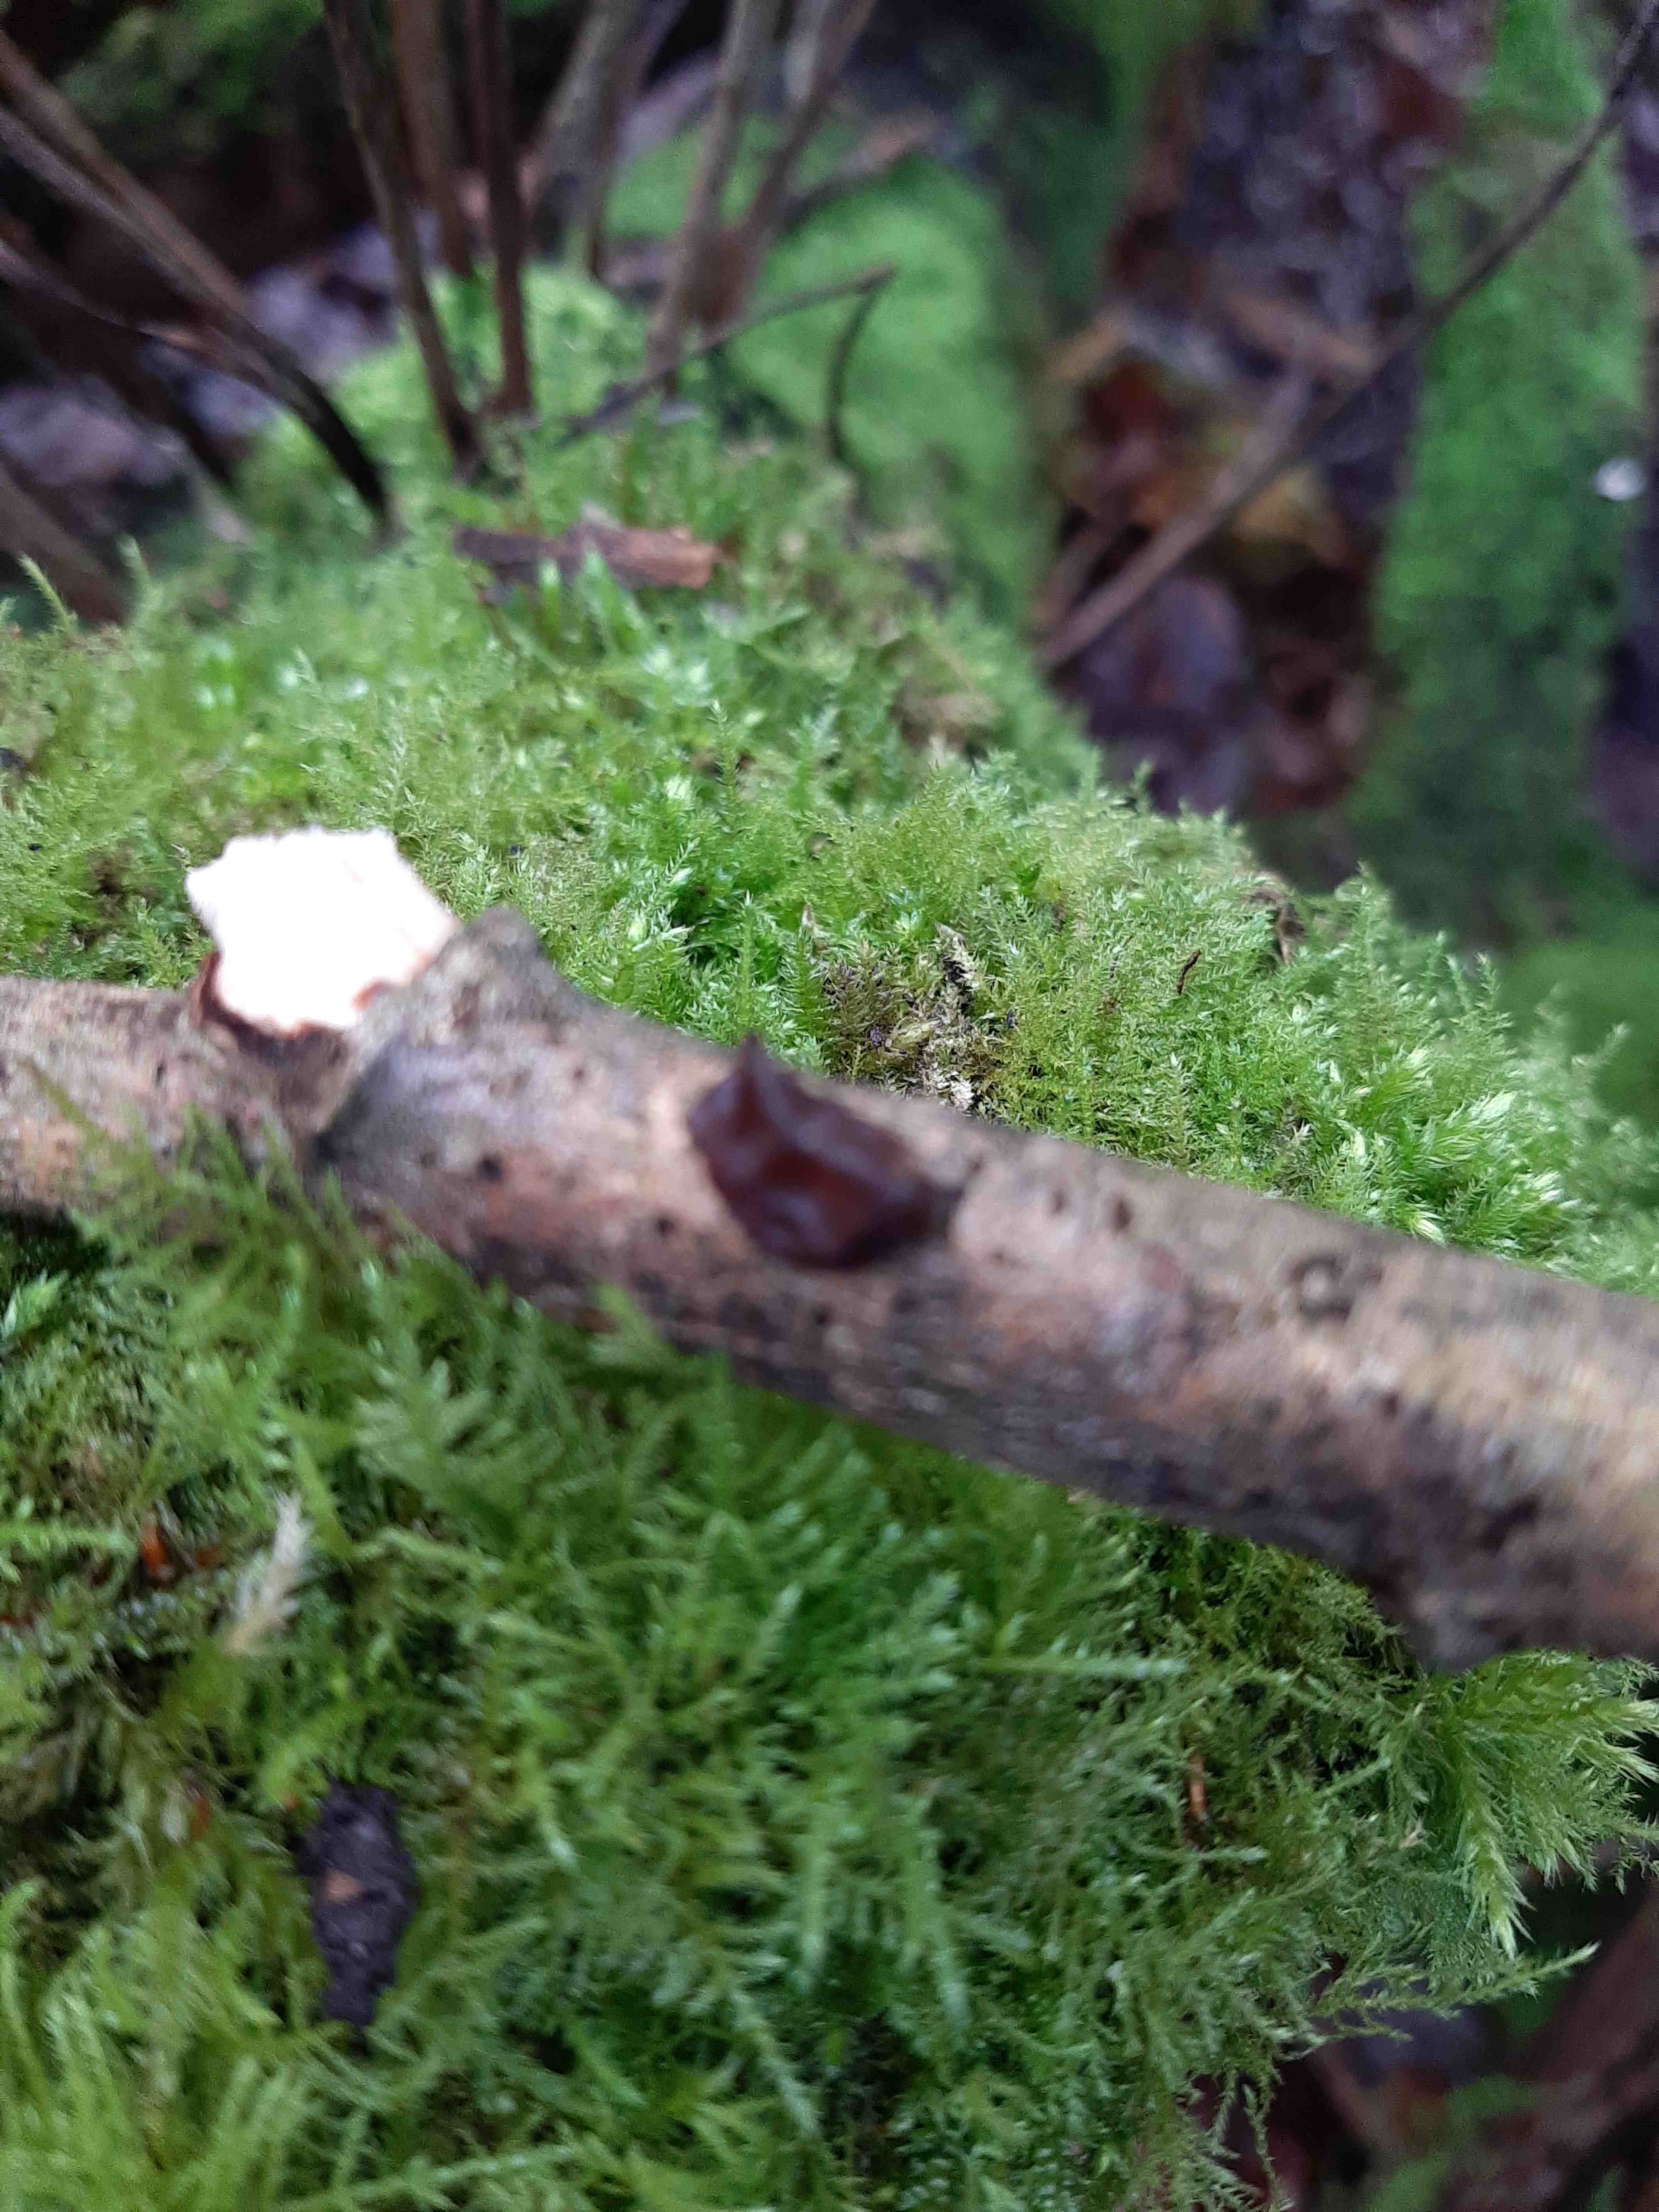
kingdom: Fungi
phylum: Basidiomycota
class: Agaricomycetes
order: Auriculariales
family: Auriculariaceae
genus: Exidia
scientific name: Exidia recisa
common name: pile-bævretop
